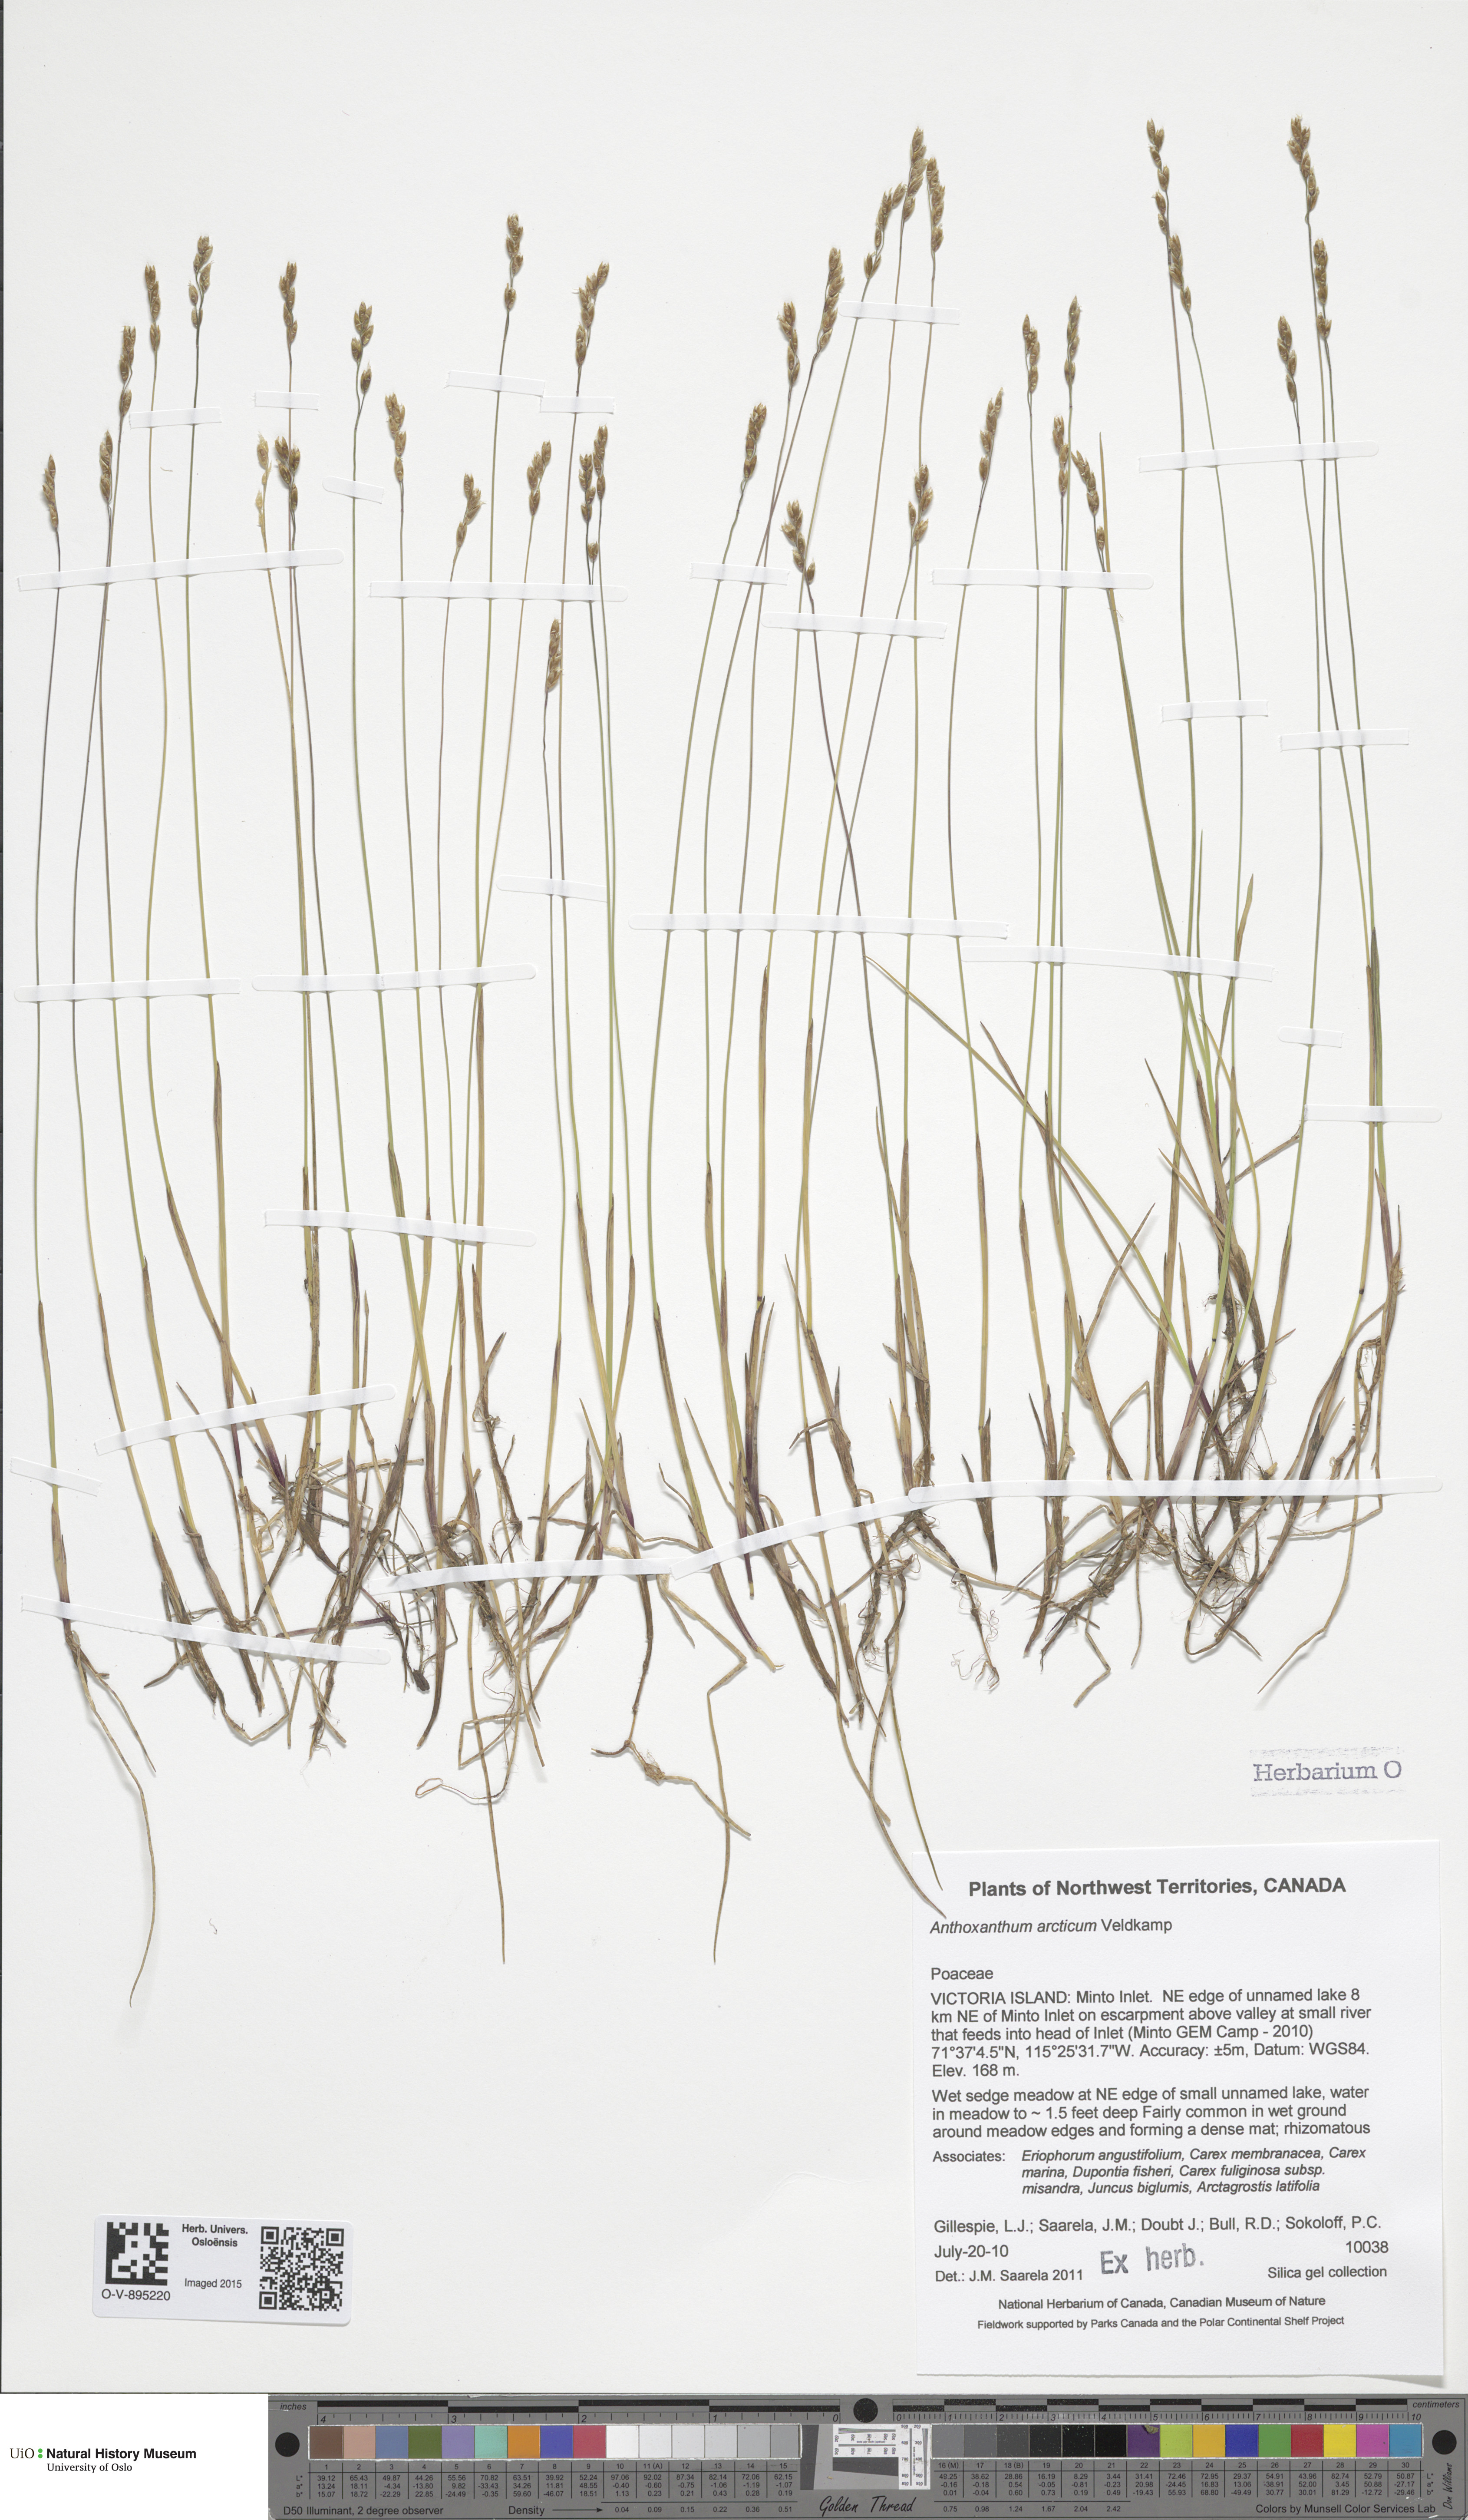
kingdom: Plantae
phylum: Tracheophyta
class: Liliopsida
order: Poales
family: Poaceae
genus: Anthoxanthum
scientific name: Anthoxanthum arcticum
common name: Arctic sweetgrass
